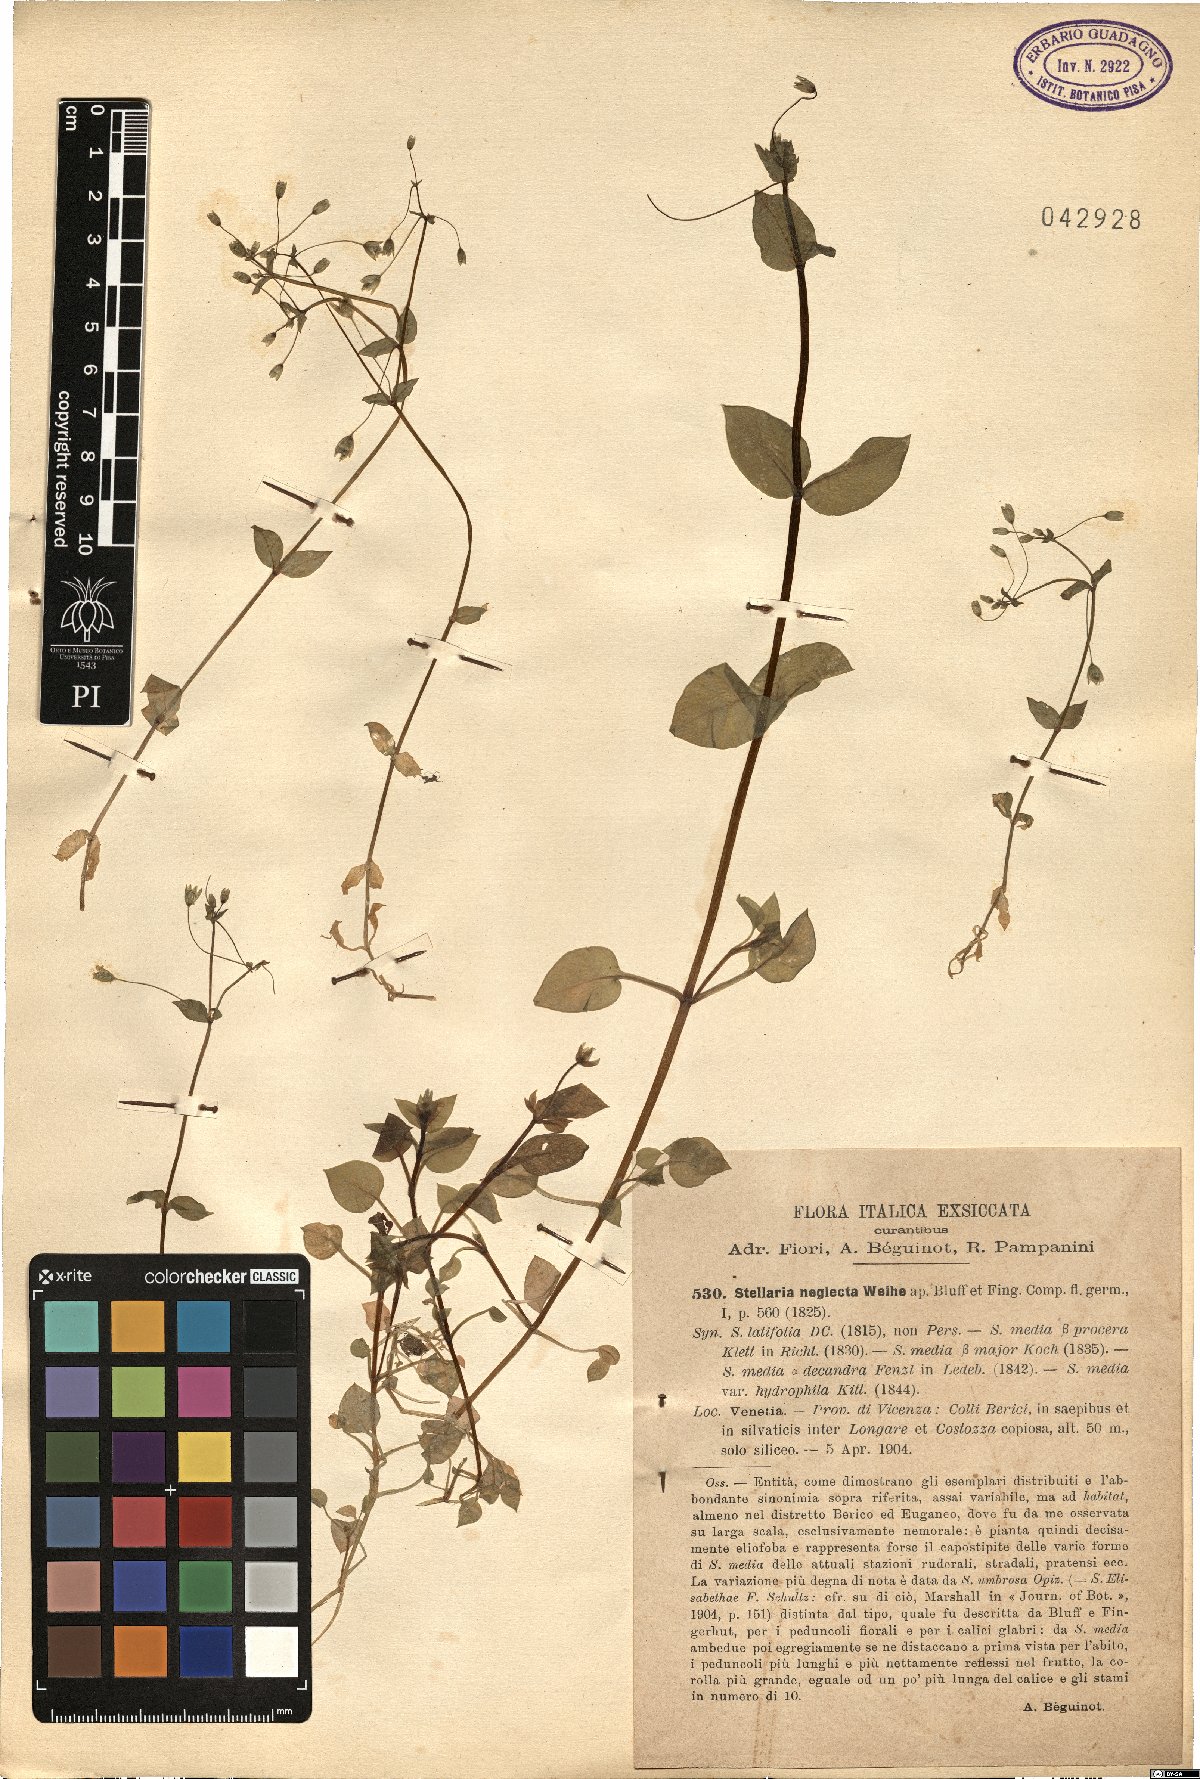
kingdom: Plantae
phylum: Tracheophyta
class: Magnoliopsida
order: Caryophyllales
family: Caryophyllaceae
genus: Stellaria
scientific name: Stellaria neglecta
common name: Greater chickweed
